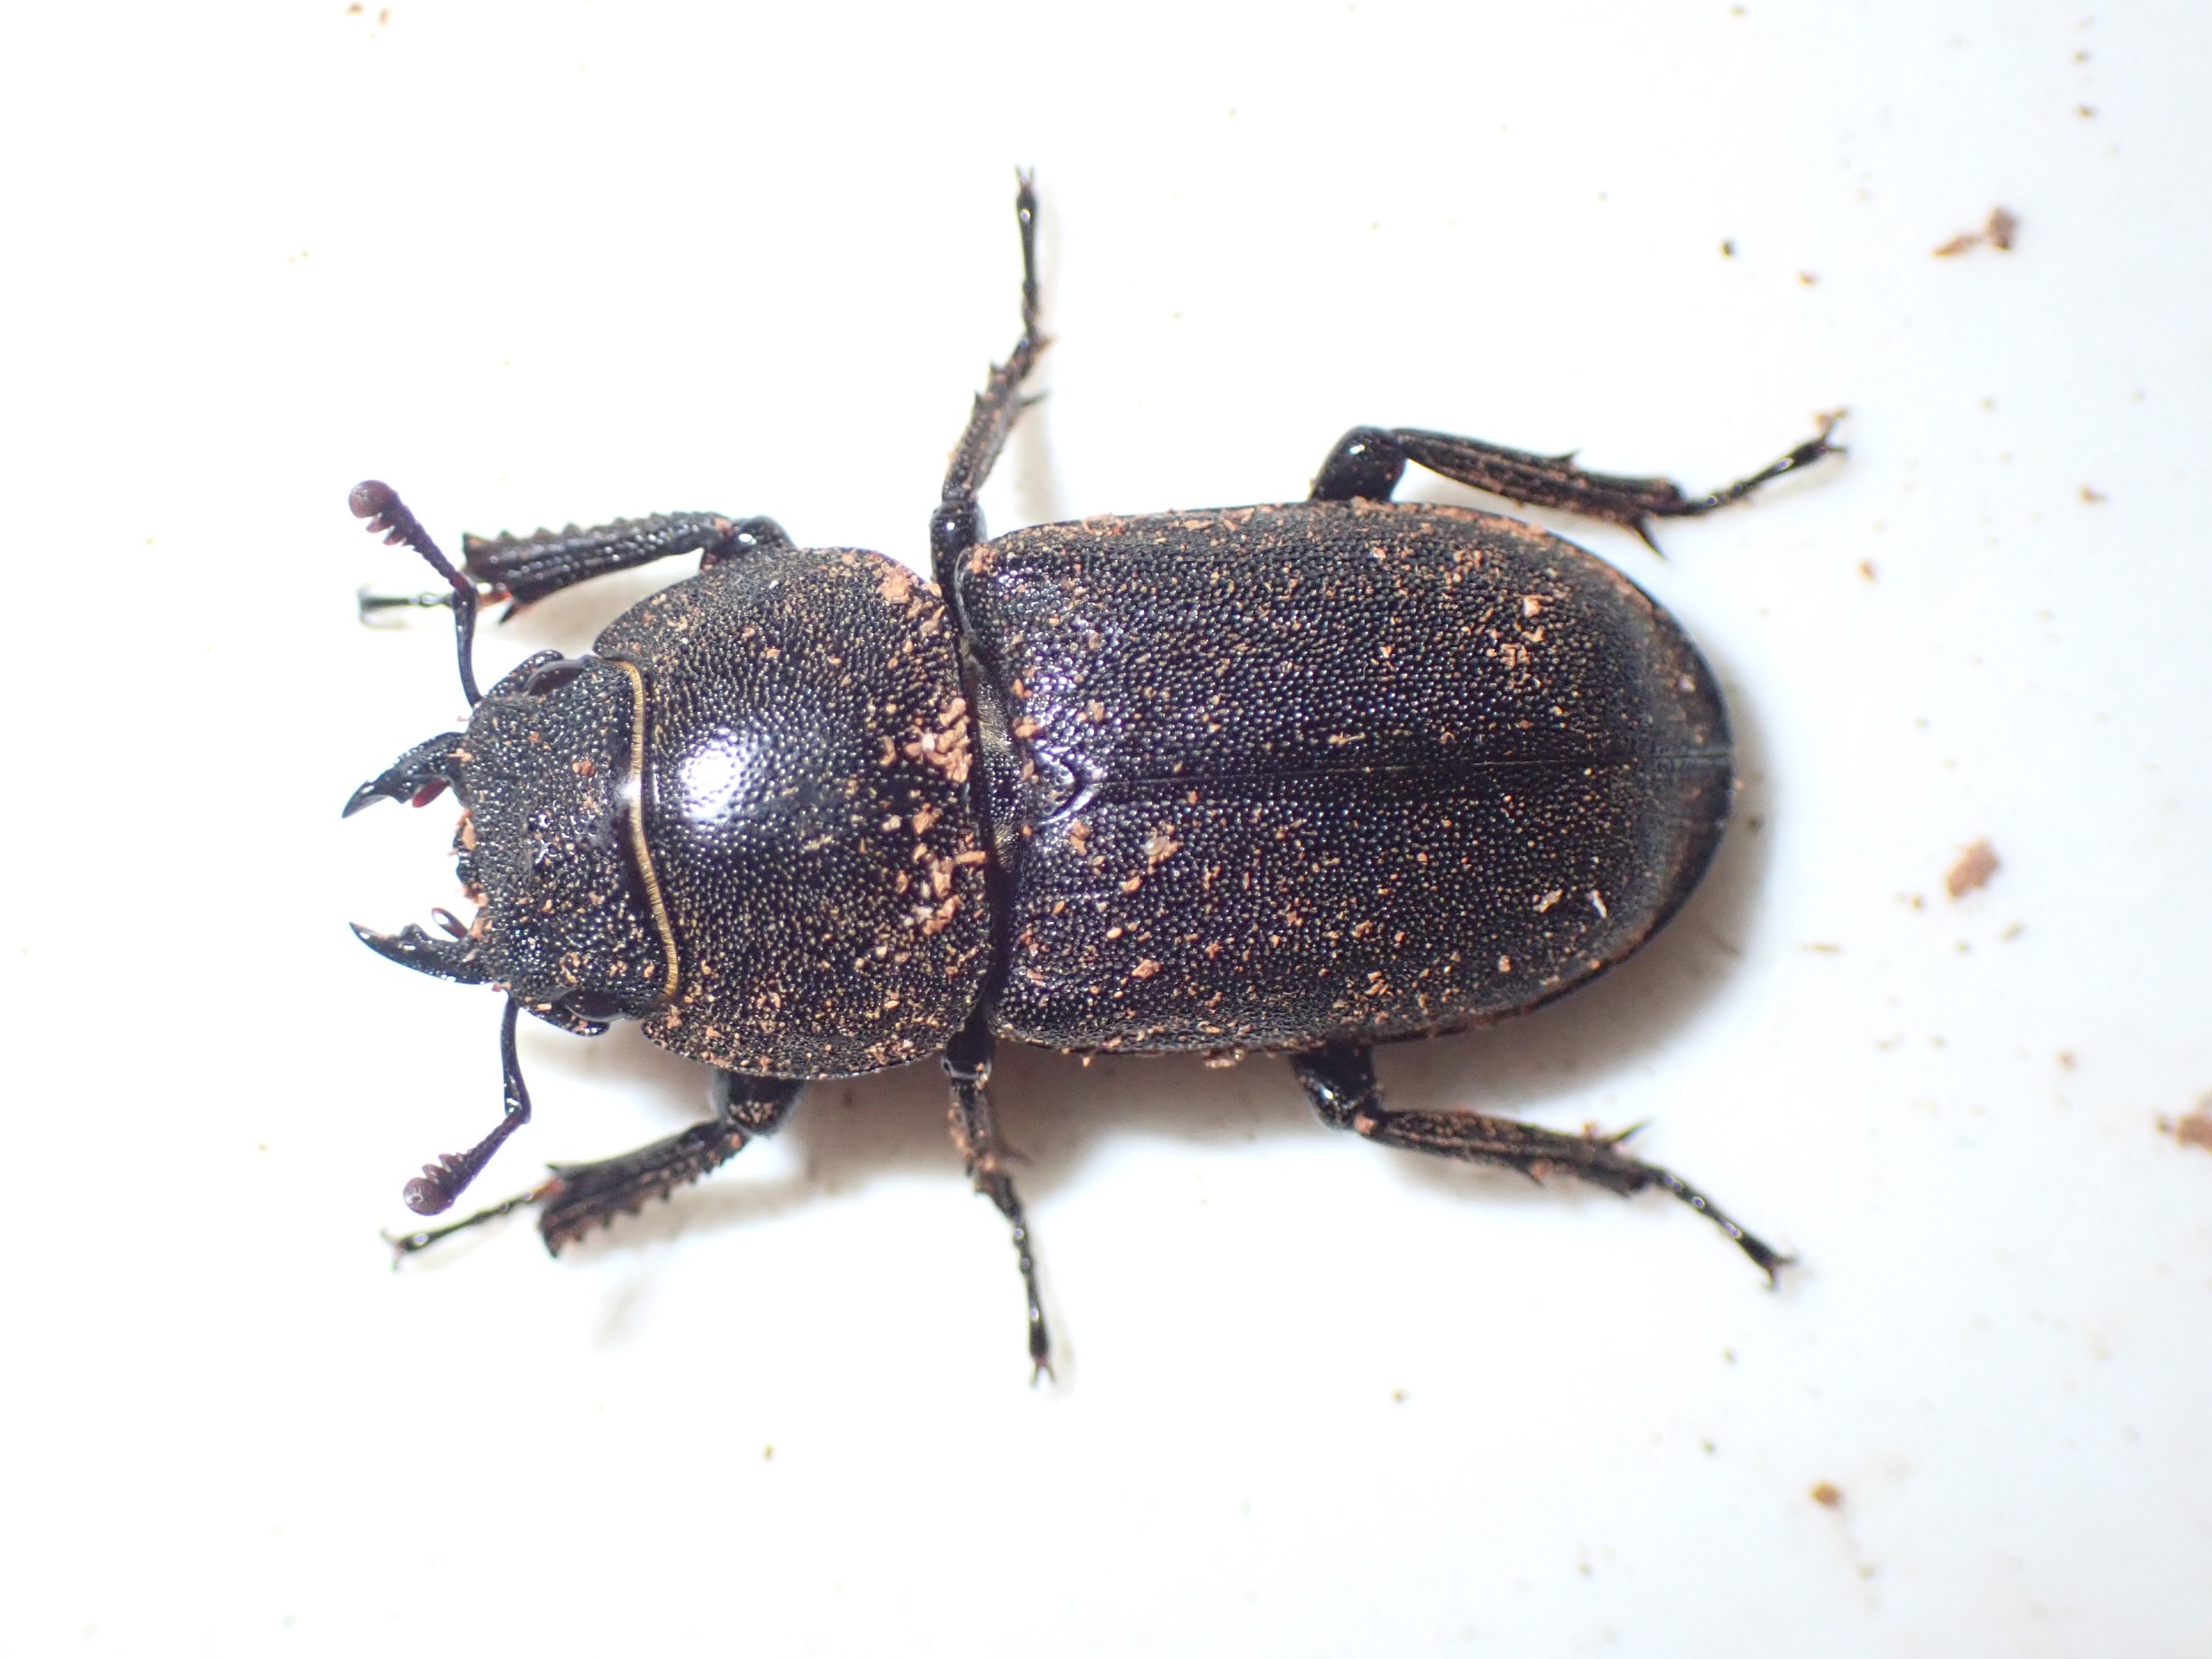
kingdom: Animalia
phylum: Arthropoda
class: Insecta
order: Coleoptera
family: Lucanidae
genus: Dorcus
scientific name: Dorcus parallelipipedus
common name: Bøghjort
